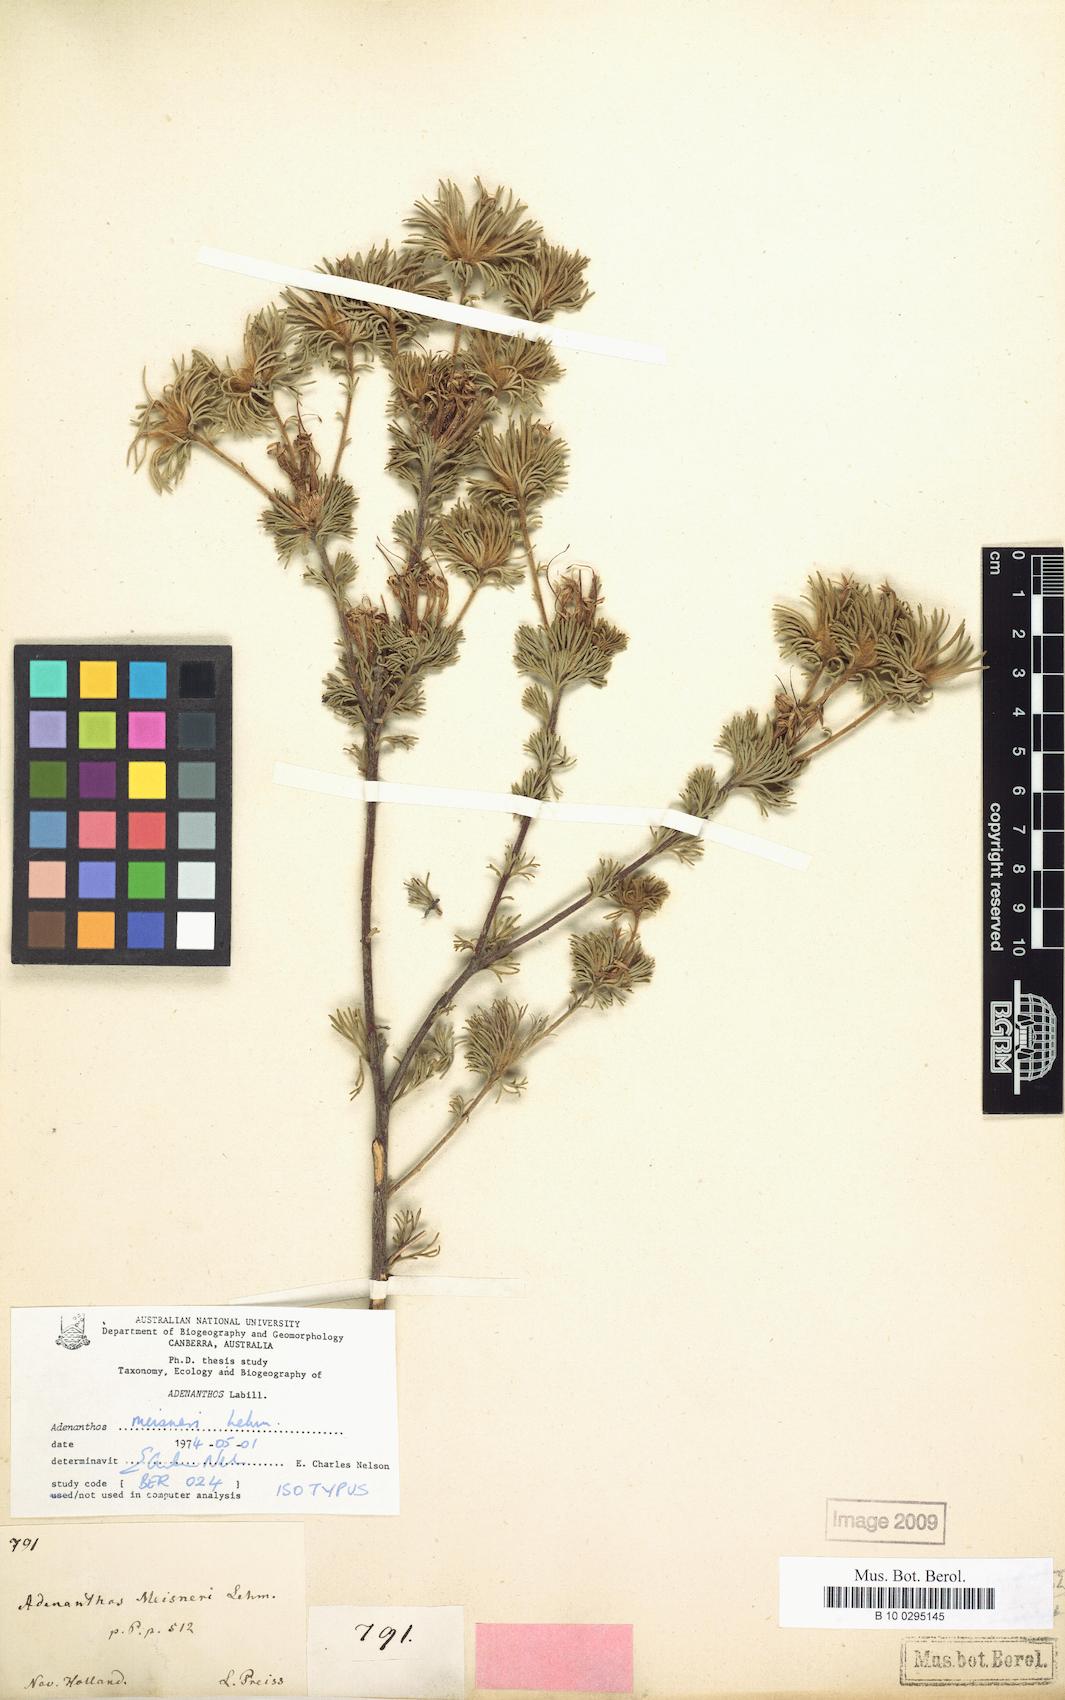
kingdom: Plantae
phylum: Tracheophyta
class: Magnoliopsida
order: Proteales
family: Proteaceae
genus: Adenanthos
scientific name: Adenanthos meisneri
